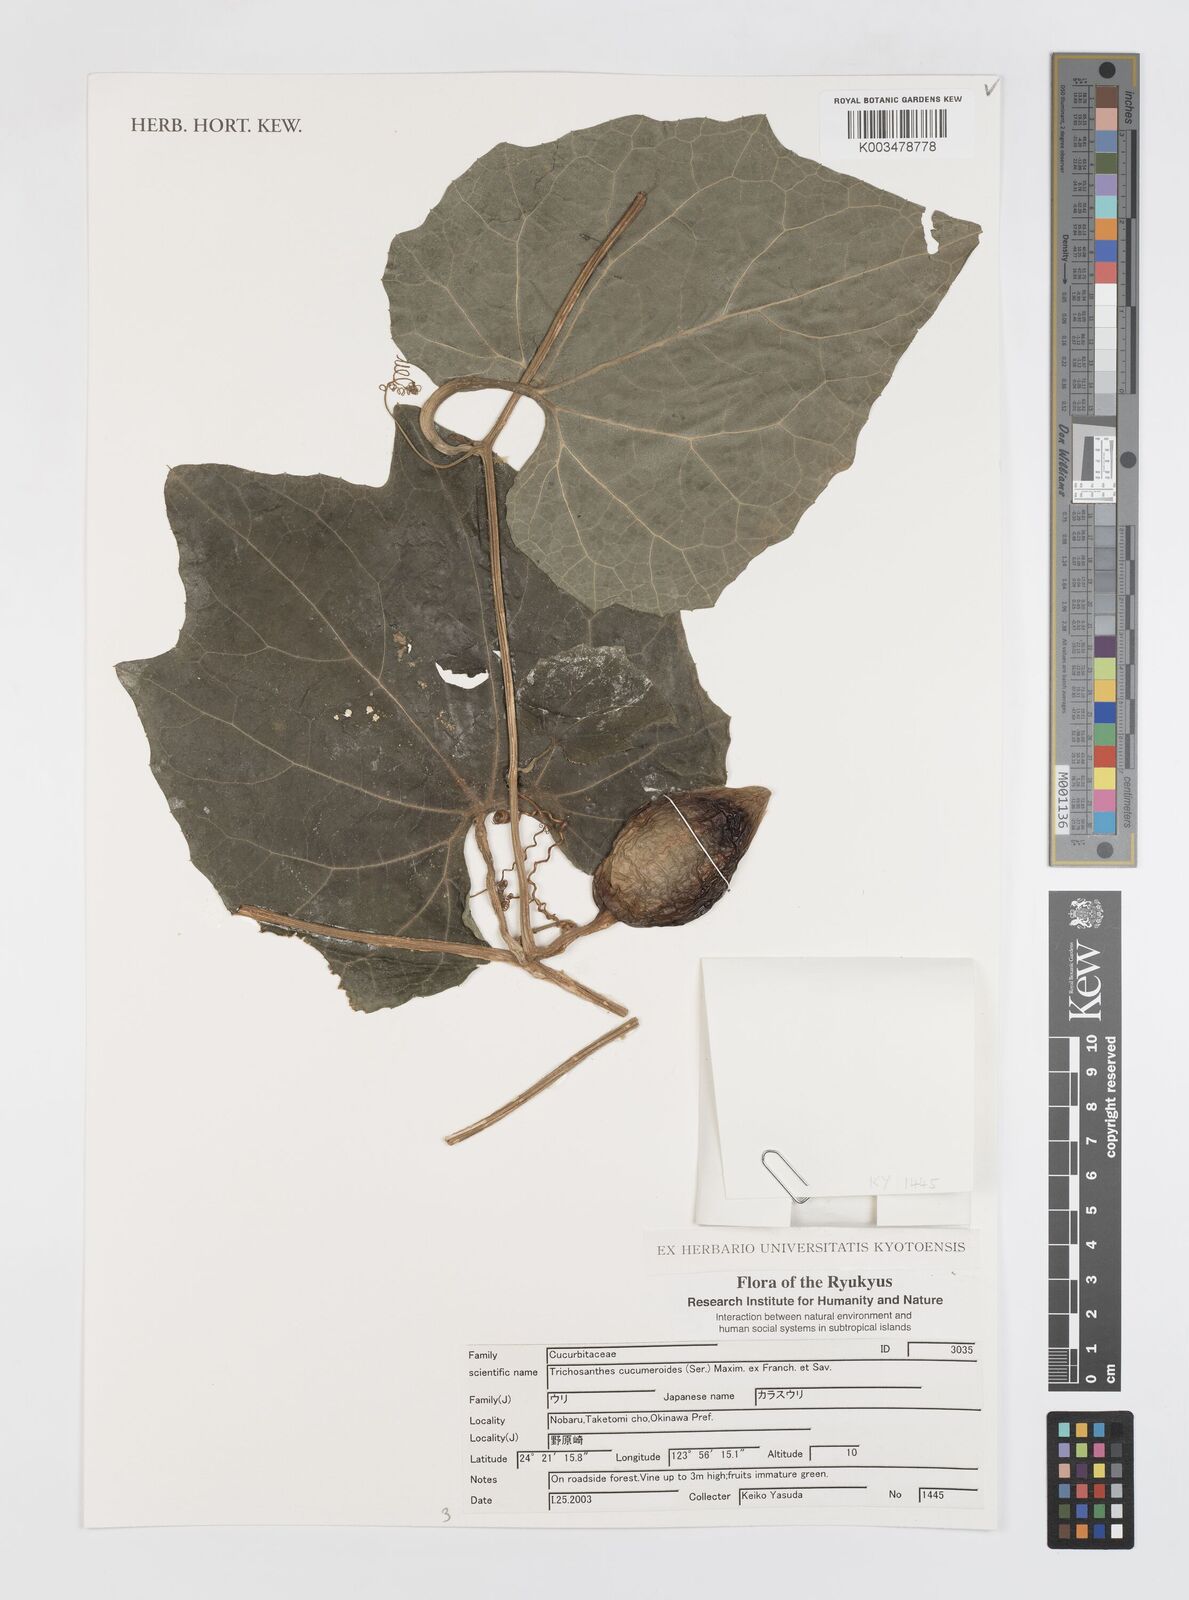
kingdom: Plantae
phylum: Tracheophyta
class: Magnoliopsida
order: Cucurbitales
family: Cucurbitaceae
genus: Trichosanthes
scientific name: Trichosanthes cucumeroides
